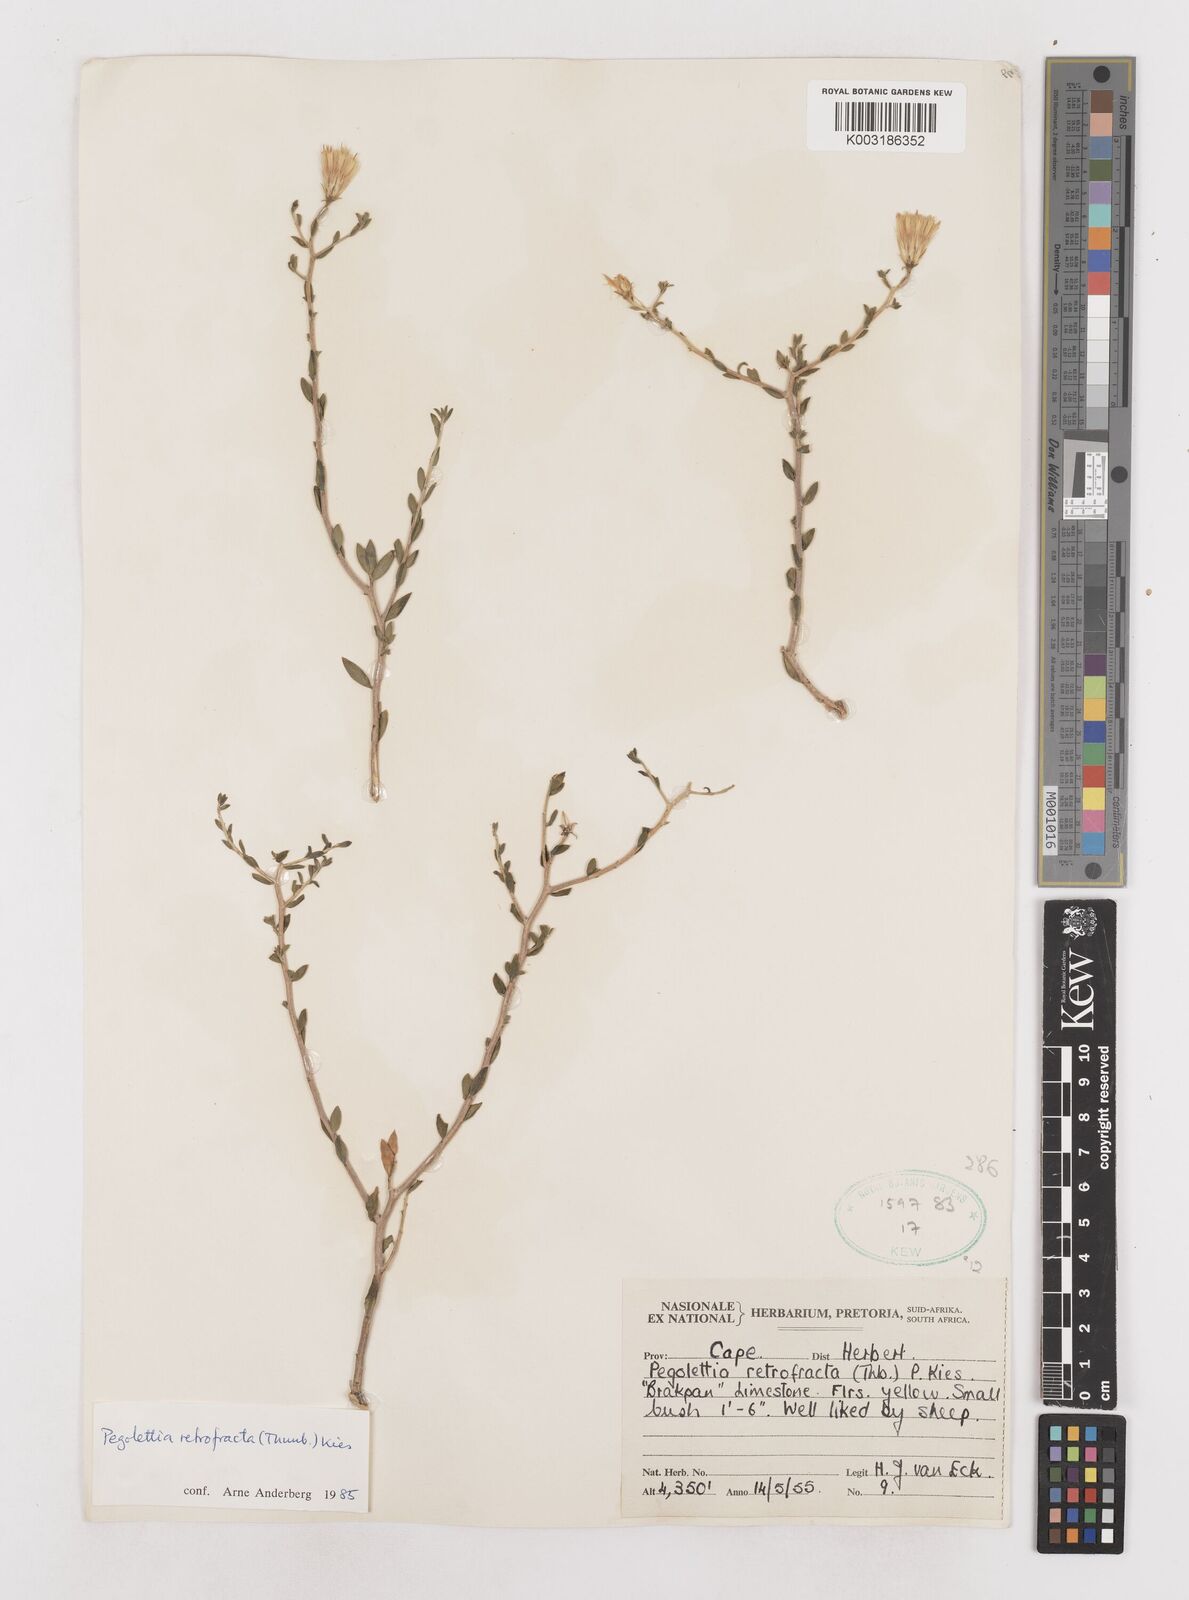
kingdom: Plantae
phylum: Tracheophyta
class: Magnoliopsida
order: Asterales
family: Asteraceae
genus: Pegolettia
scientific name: Pegolettia retrofracta
